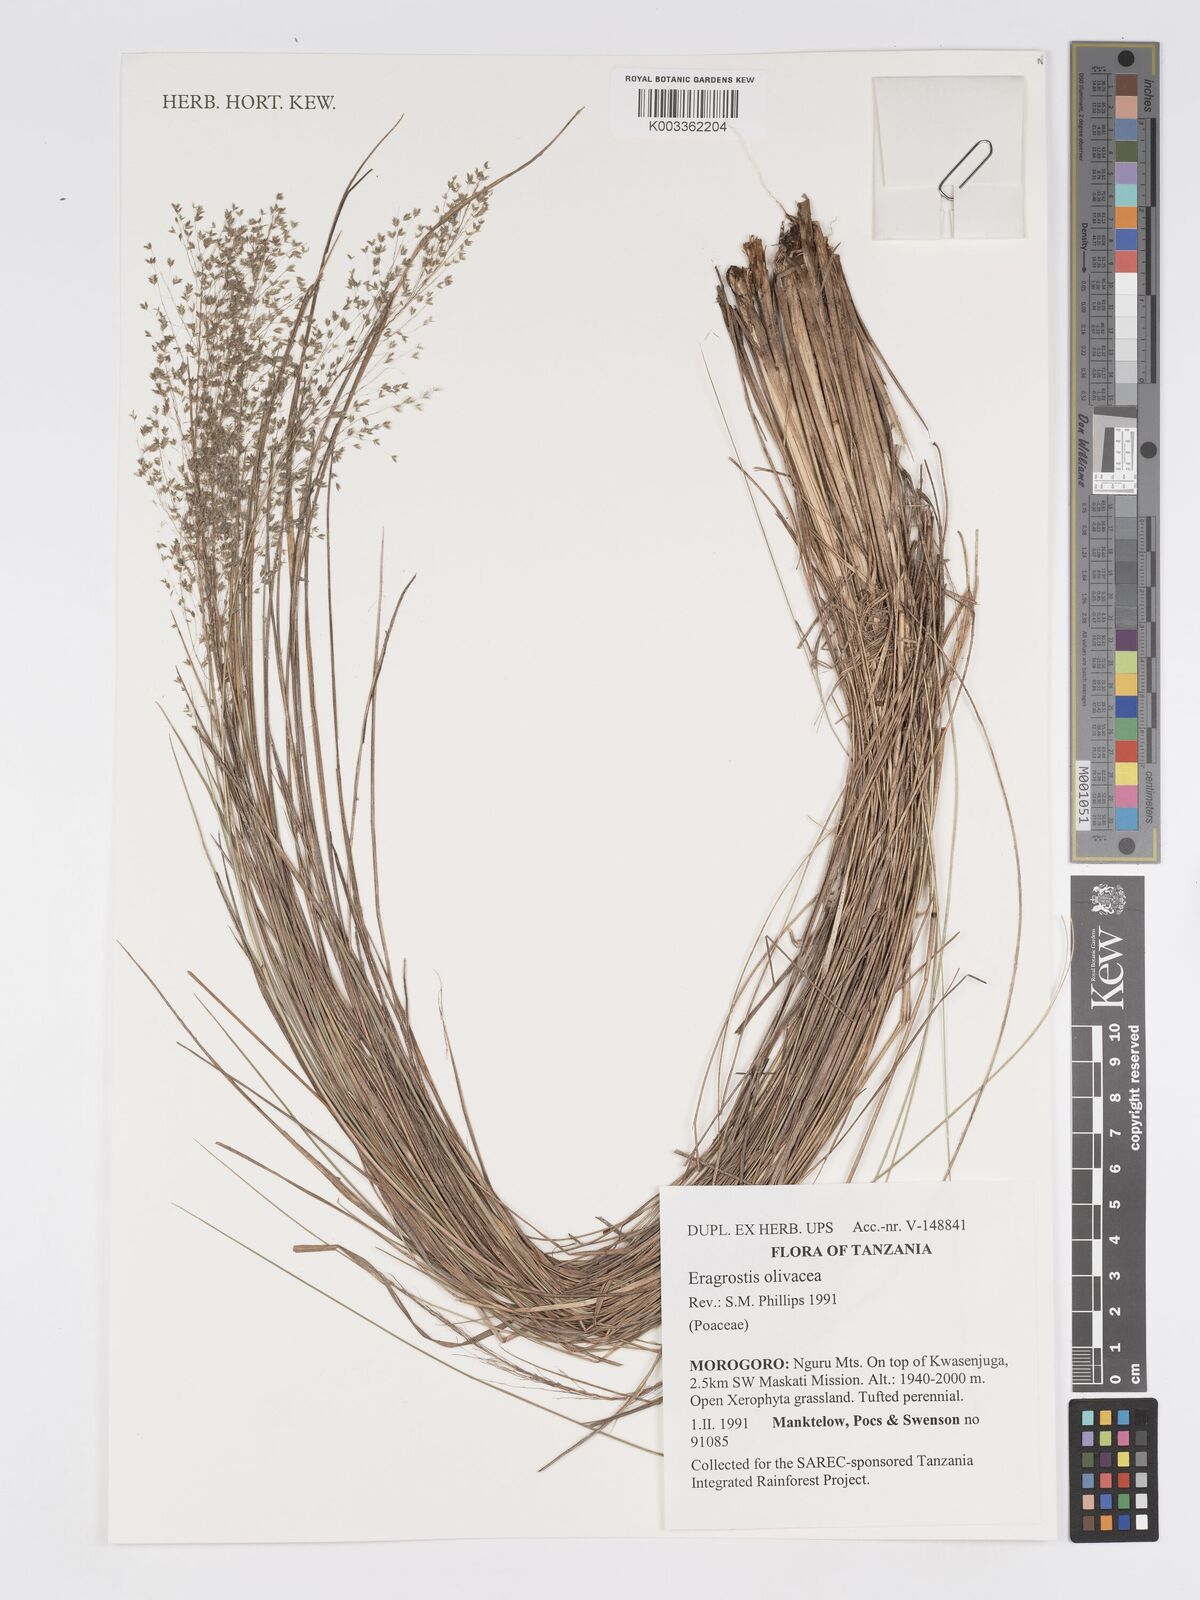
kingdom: Plantae
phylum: Tracheophyta
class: Liliopsida
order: Poales
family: Poaceae
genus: Eragrostis
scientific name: Eragrostis olivacea
